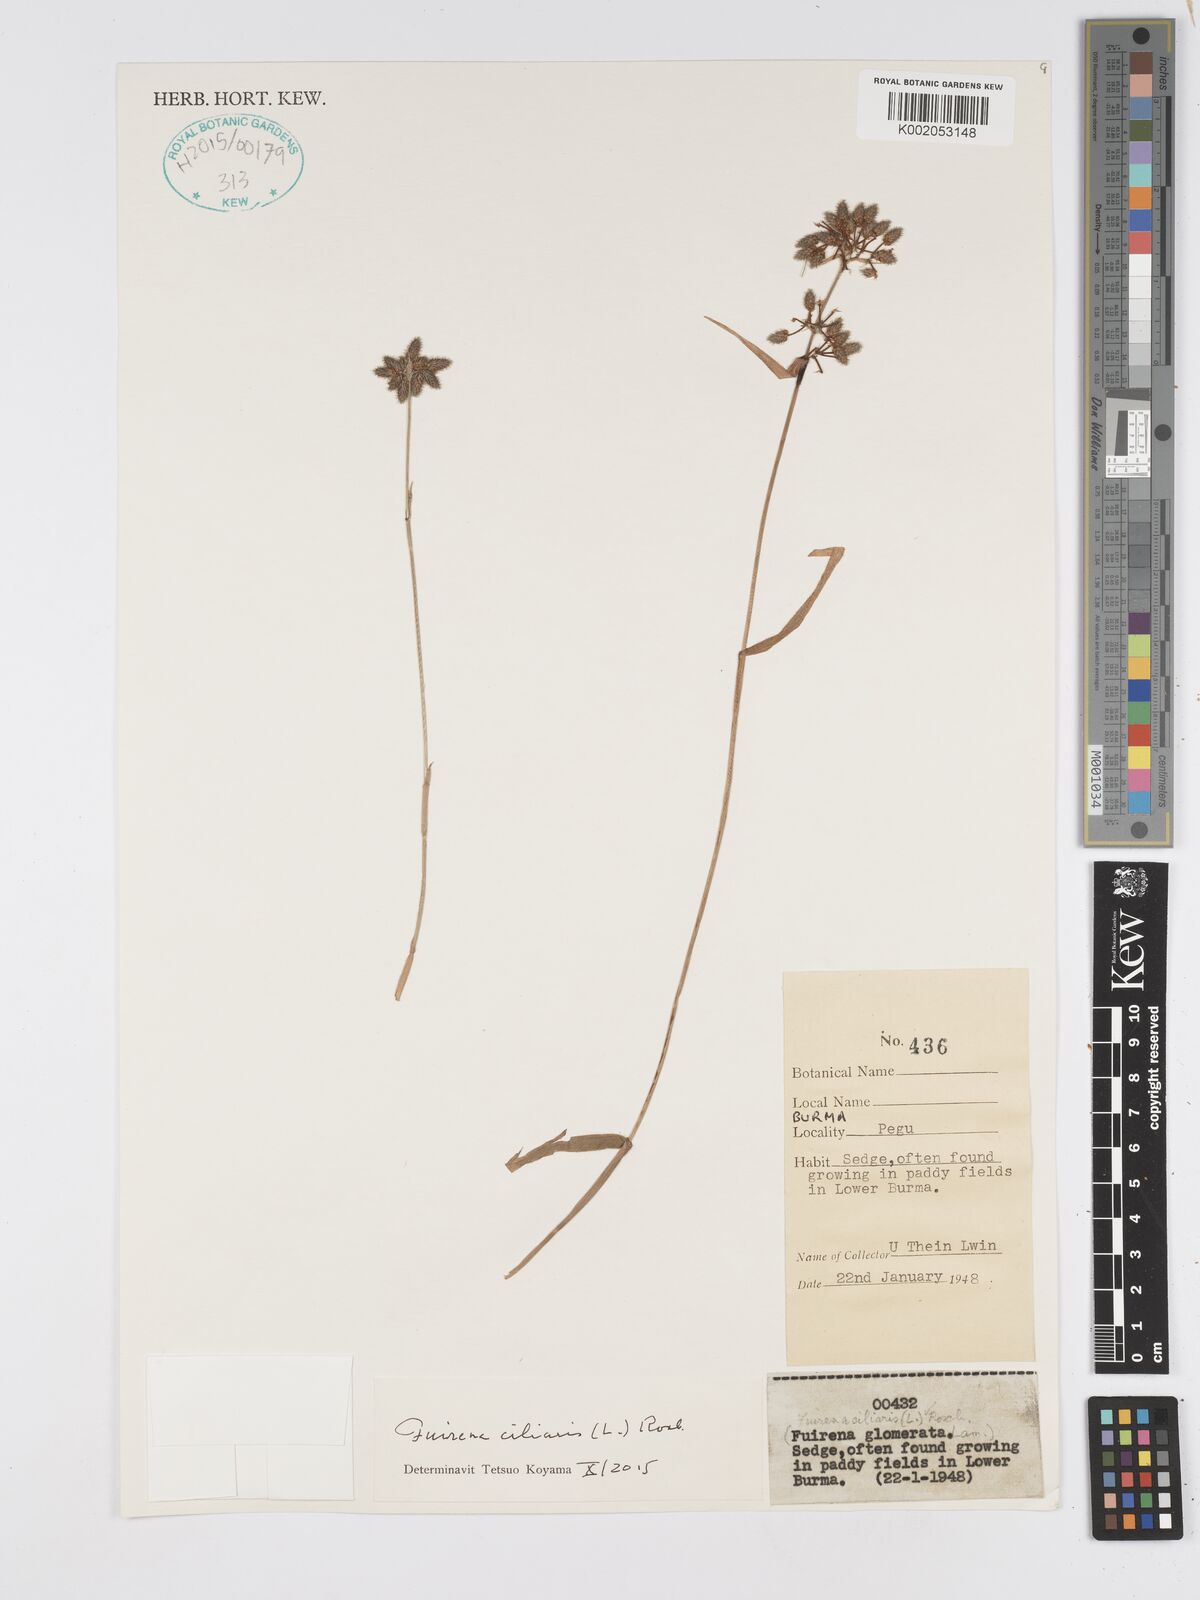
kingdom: Plantae
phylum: Tracheophyta
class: Liliopsida
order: Poales
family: Cyperaceae
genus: Fuirena
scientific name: Fuirena ciliaris
